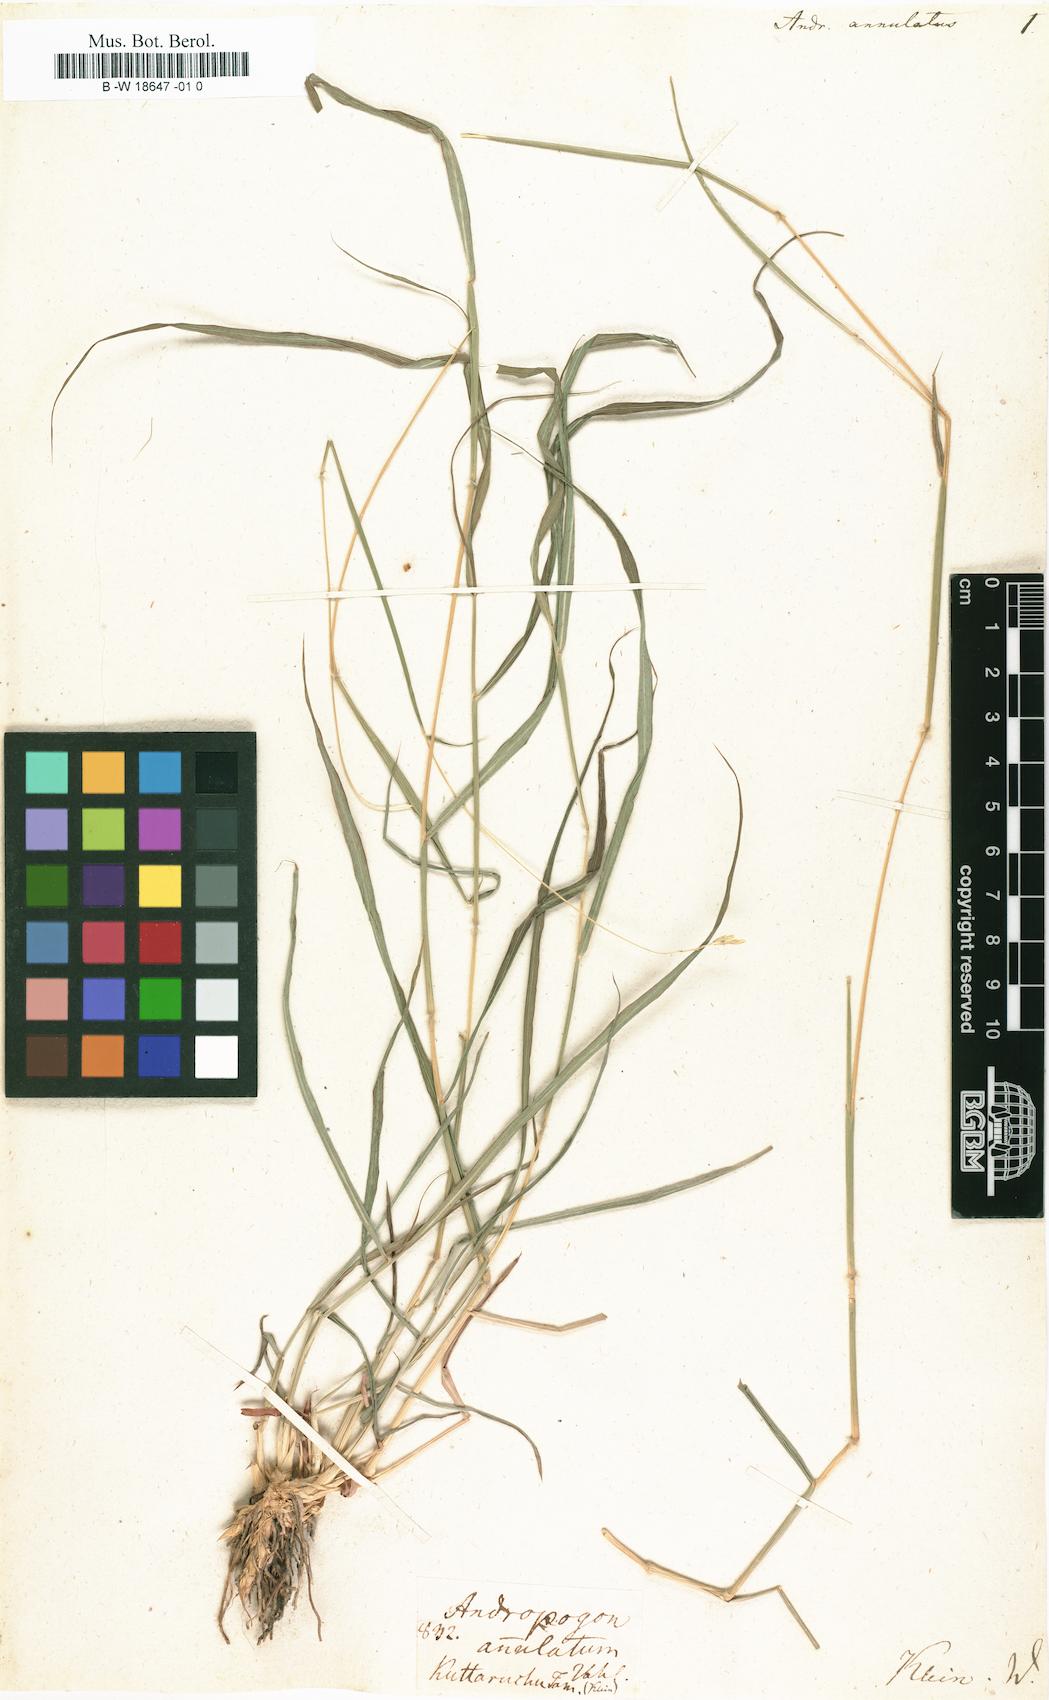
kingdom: Plantae
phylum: Tracheophyta
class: Liliopsida
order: Poales
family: Poaceae
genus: Andropogon
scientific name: Andropogon annulatus
